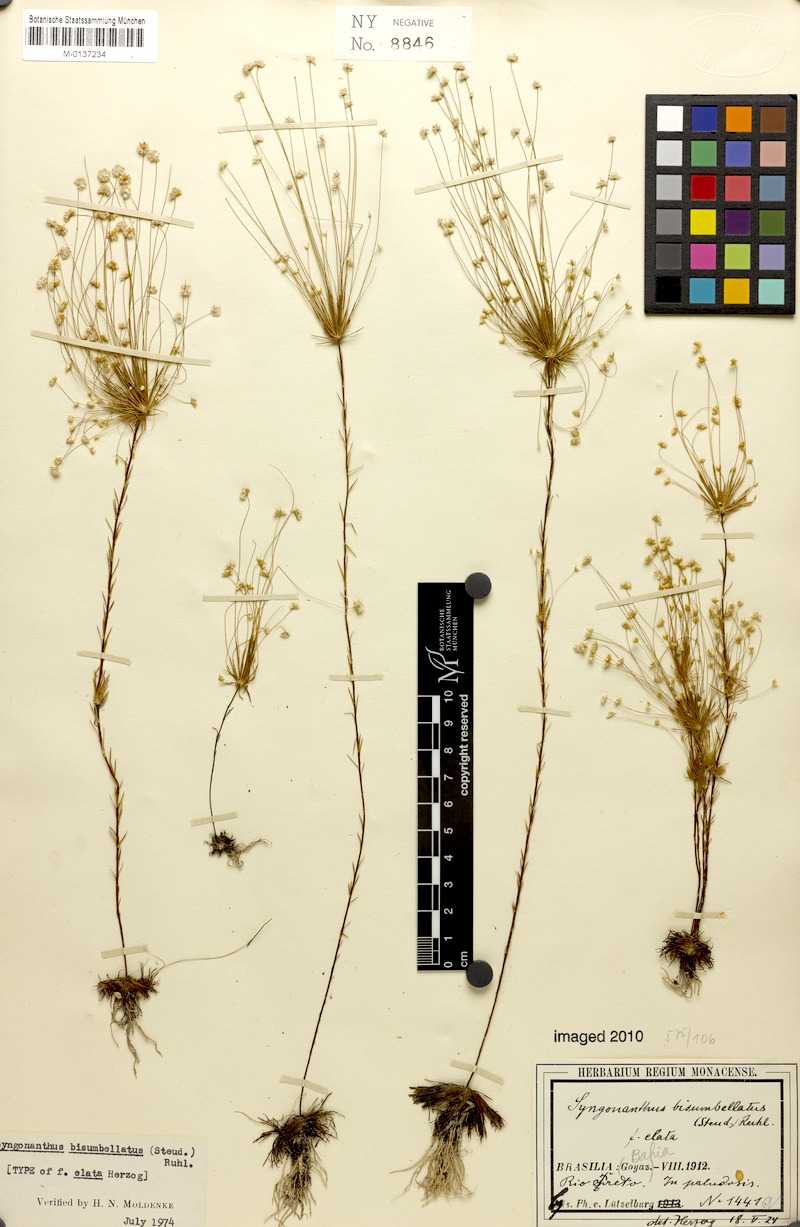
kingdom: Plantae
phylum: Tracheophyta
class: Liliopsida
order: Poales
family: Eriocaulaceae
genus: Syngonanthus
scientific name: Syngonanthus bisumbellatus
